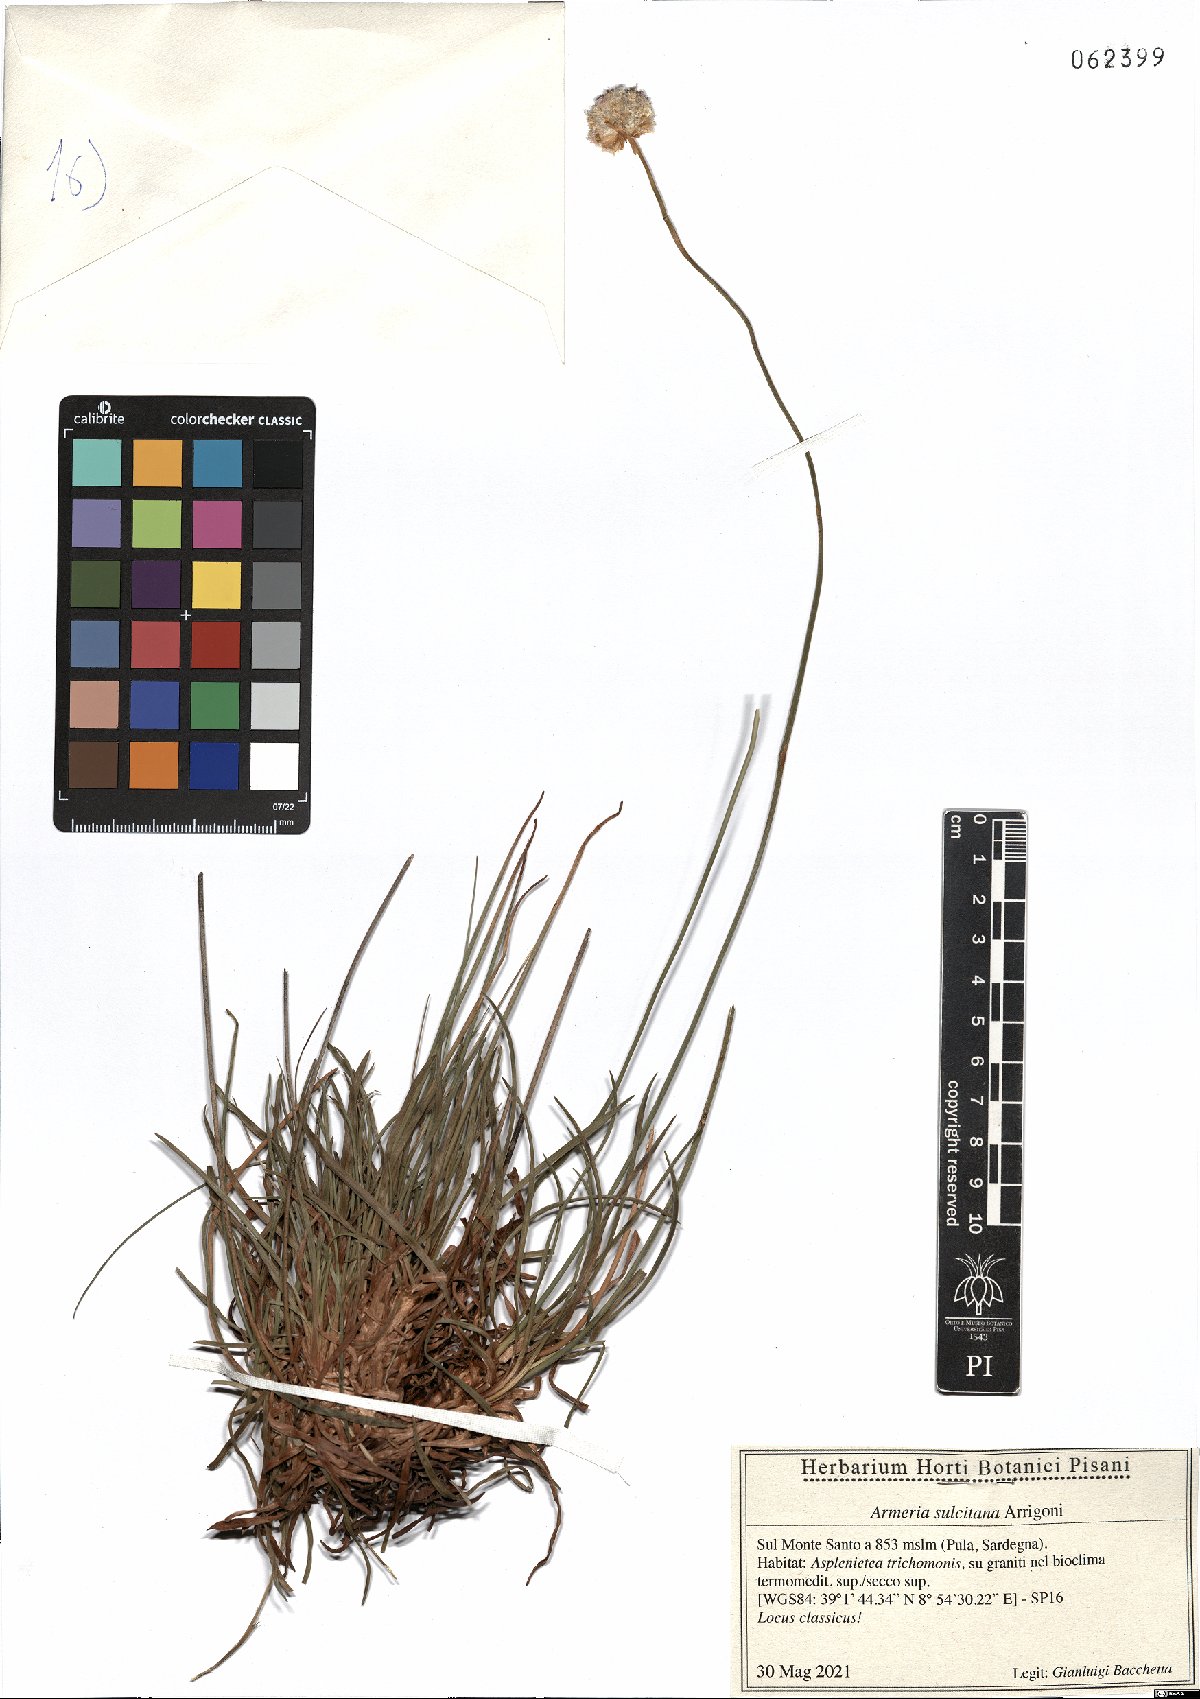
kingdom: Plantae
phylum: Tracheophyta
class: Magnoliopsida
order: Caryophyllales
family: Plumbaginaceae
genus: Armeria
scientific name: Armeria sulcitana
